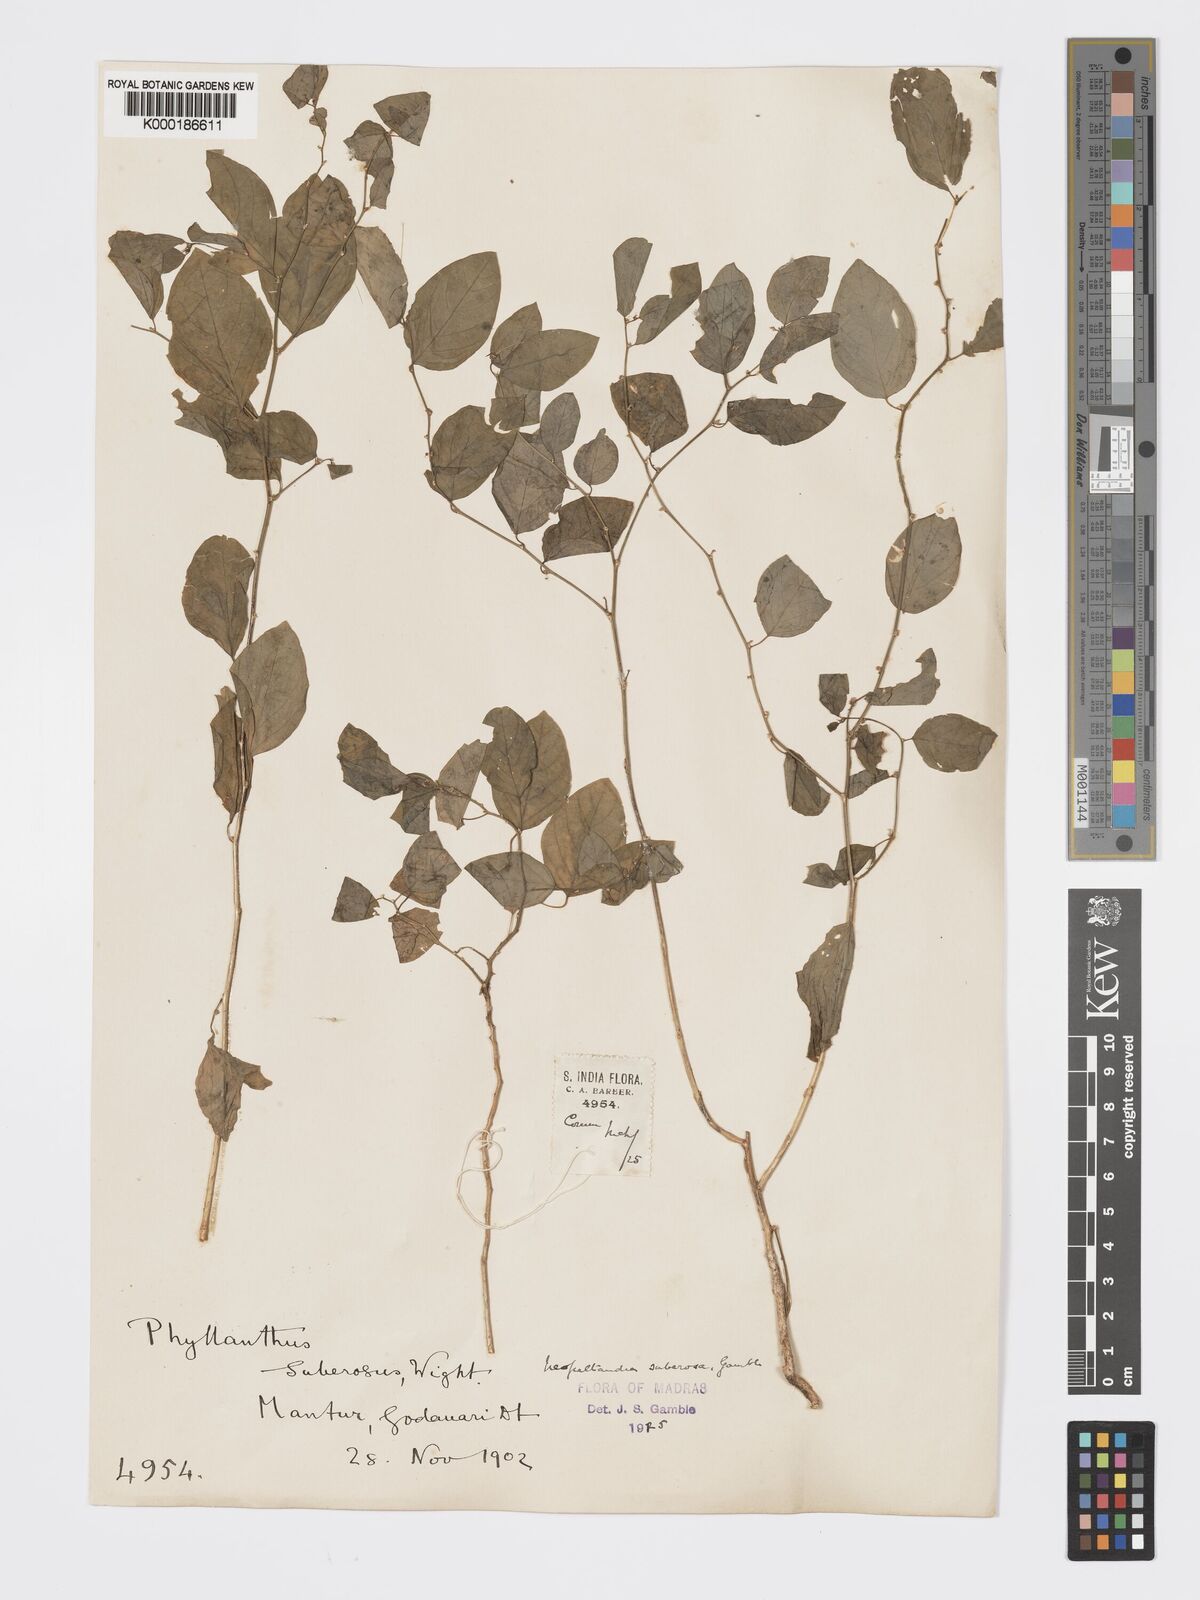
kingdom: Plantae
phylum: Tracheophyta
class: Magnoliopsida
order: Malpighiales
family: Phyllanthaceae
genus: Meineckia
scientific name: Meineckia parvifolia
